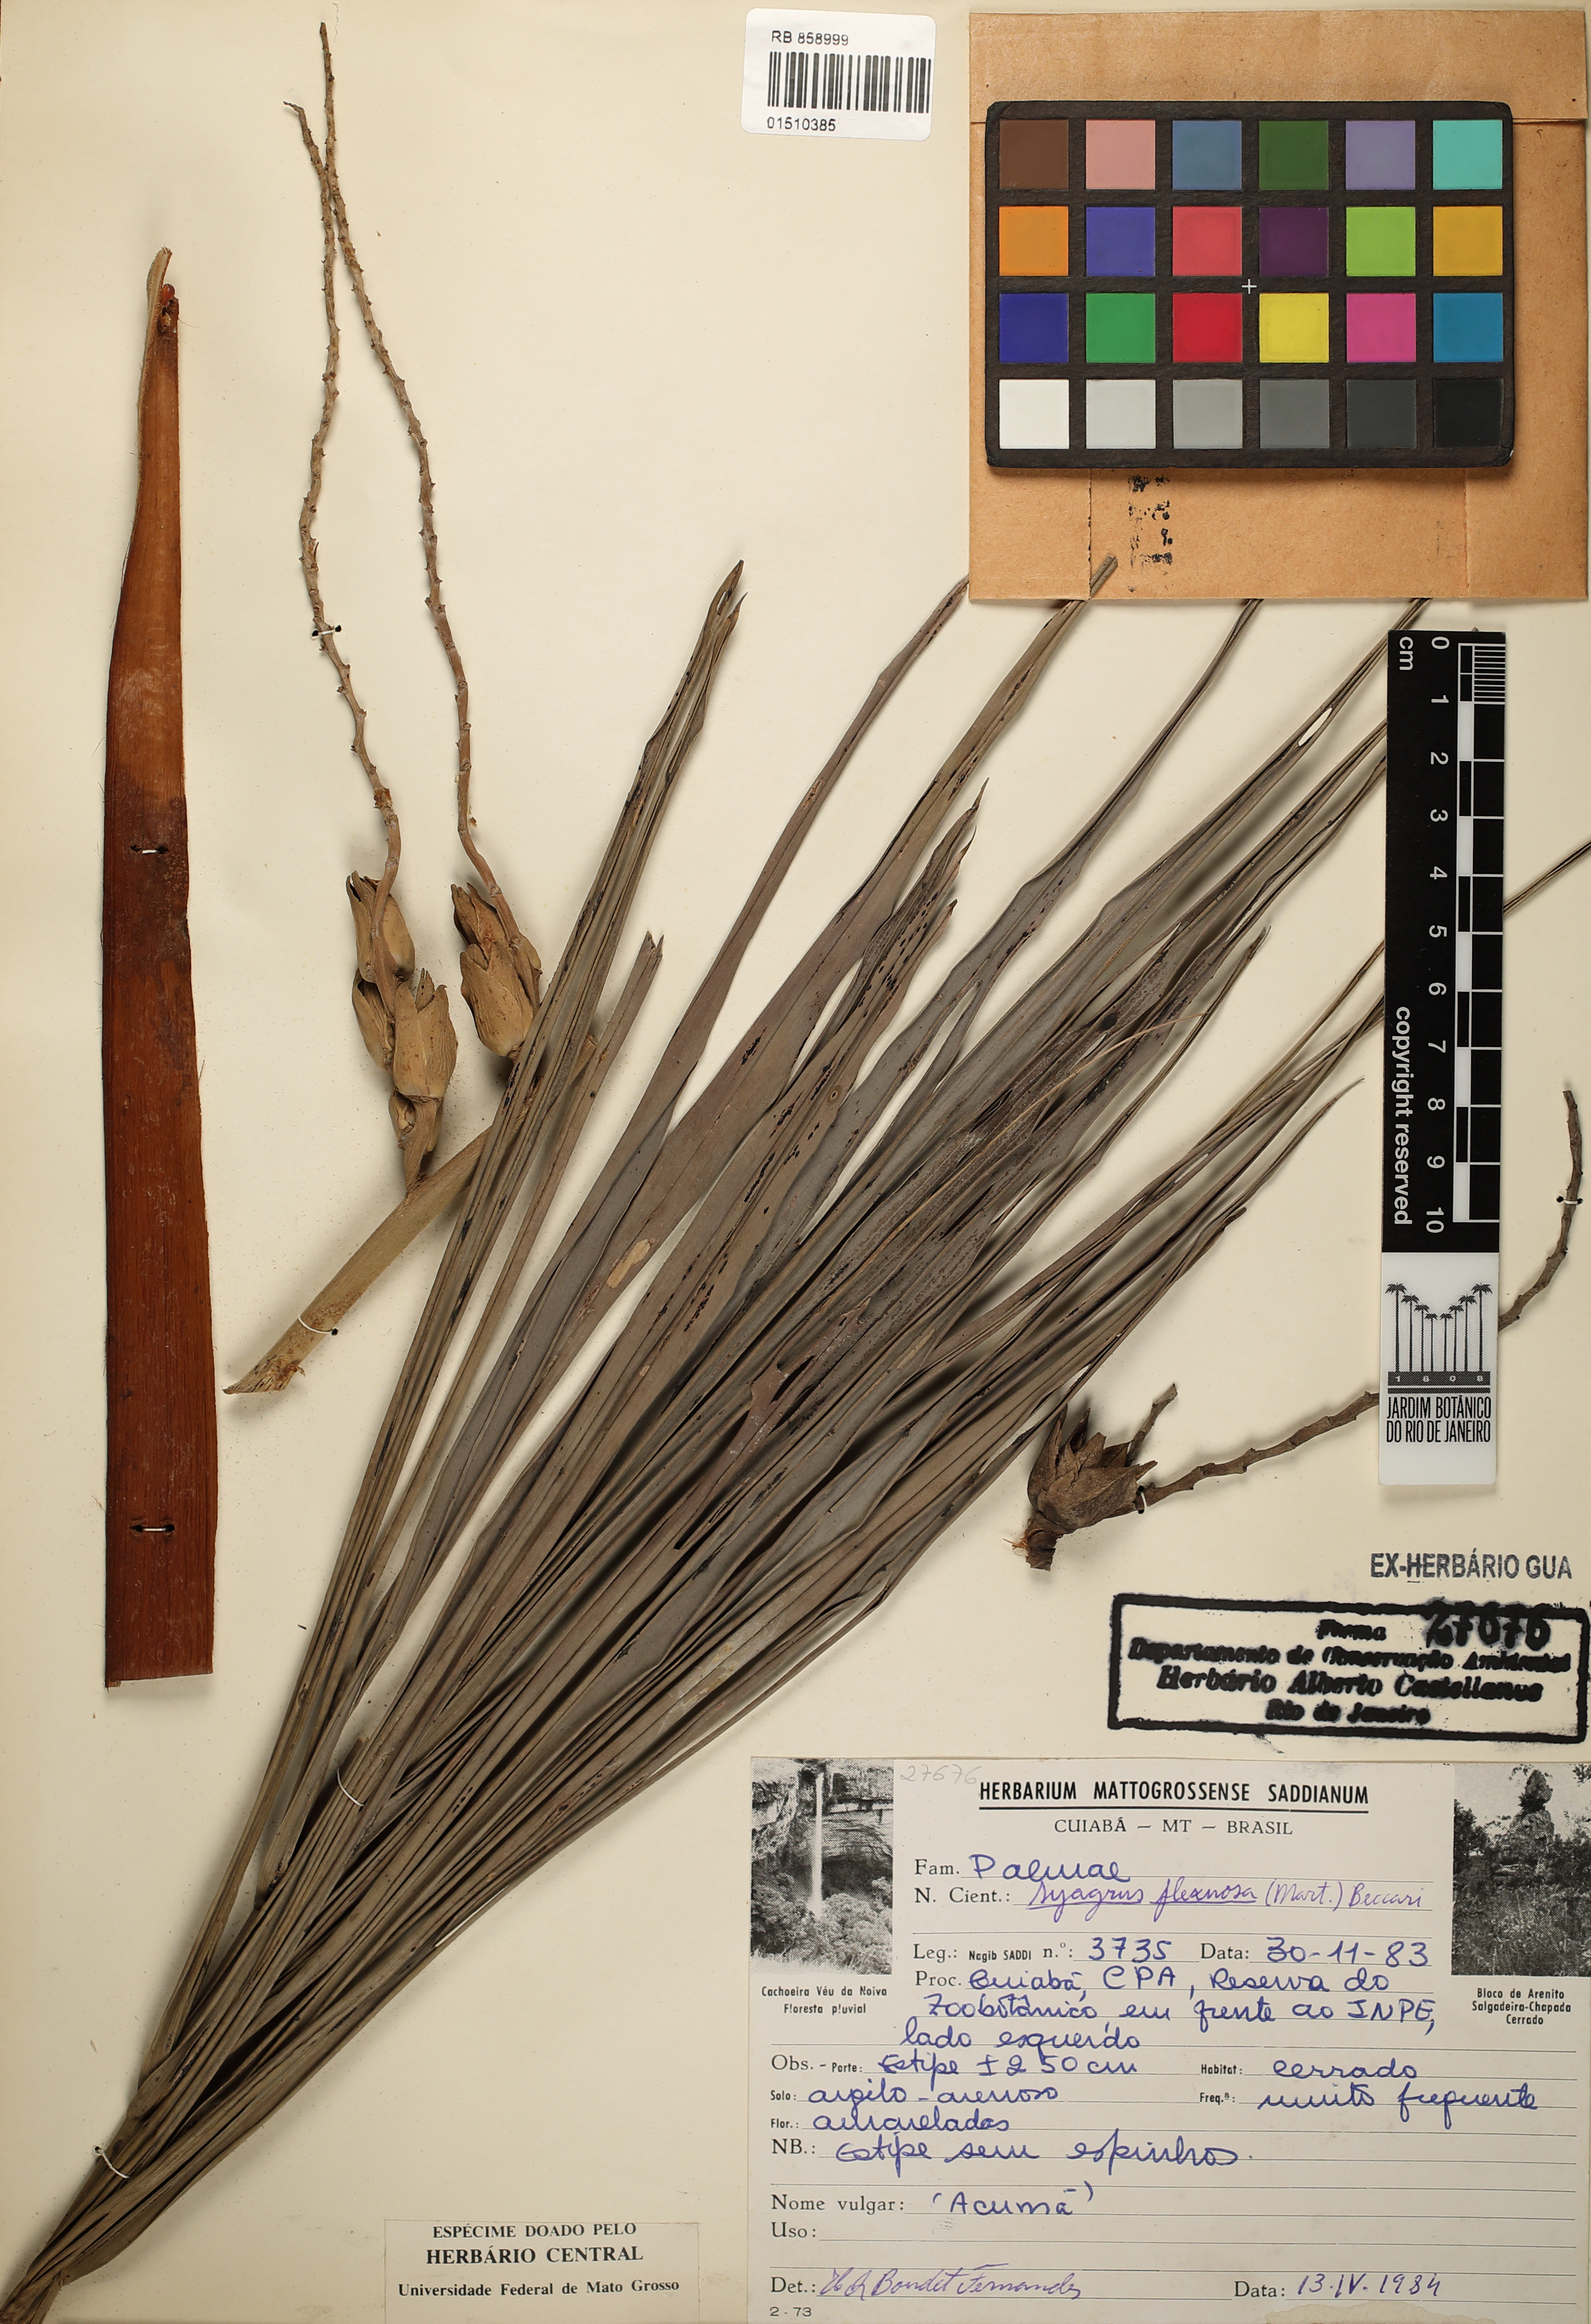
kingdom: Plantae
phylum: Tracheophyta
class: Liliopsida
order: Arecales
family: Arecaceae
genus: Syagrus
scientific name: Syagrus flexuosa
